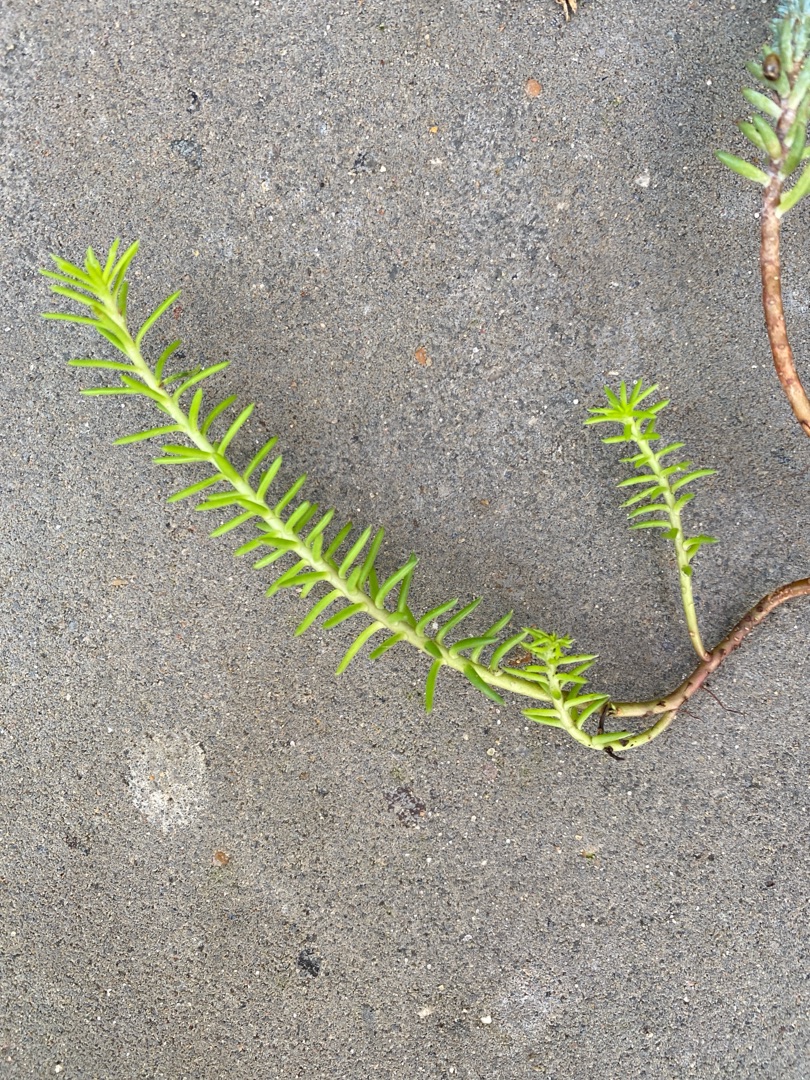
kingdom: Plantae
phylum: Tracheophyta
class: Magnoliopsida
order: Saxifragales
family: Crassulaceae
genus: Petrosedum
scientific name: Petrosedum rupestre
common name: Bjerg-stenurt
